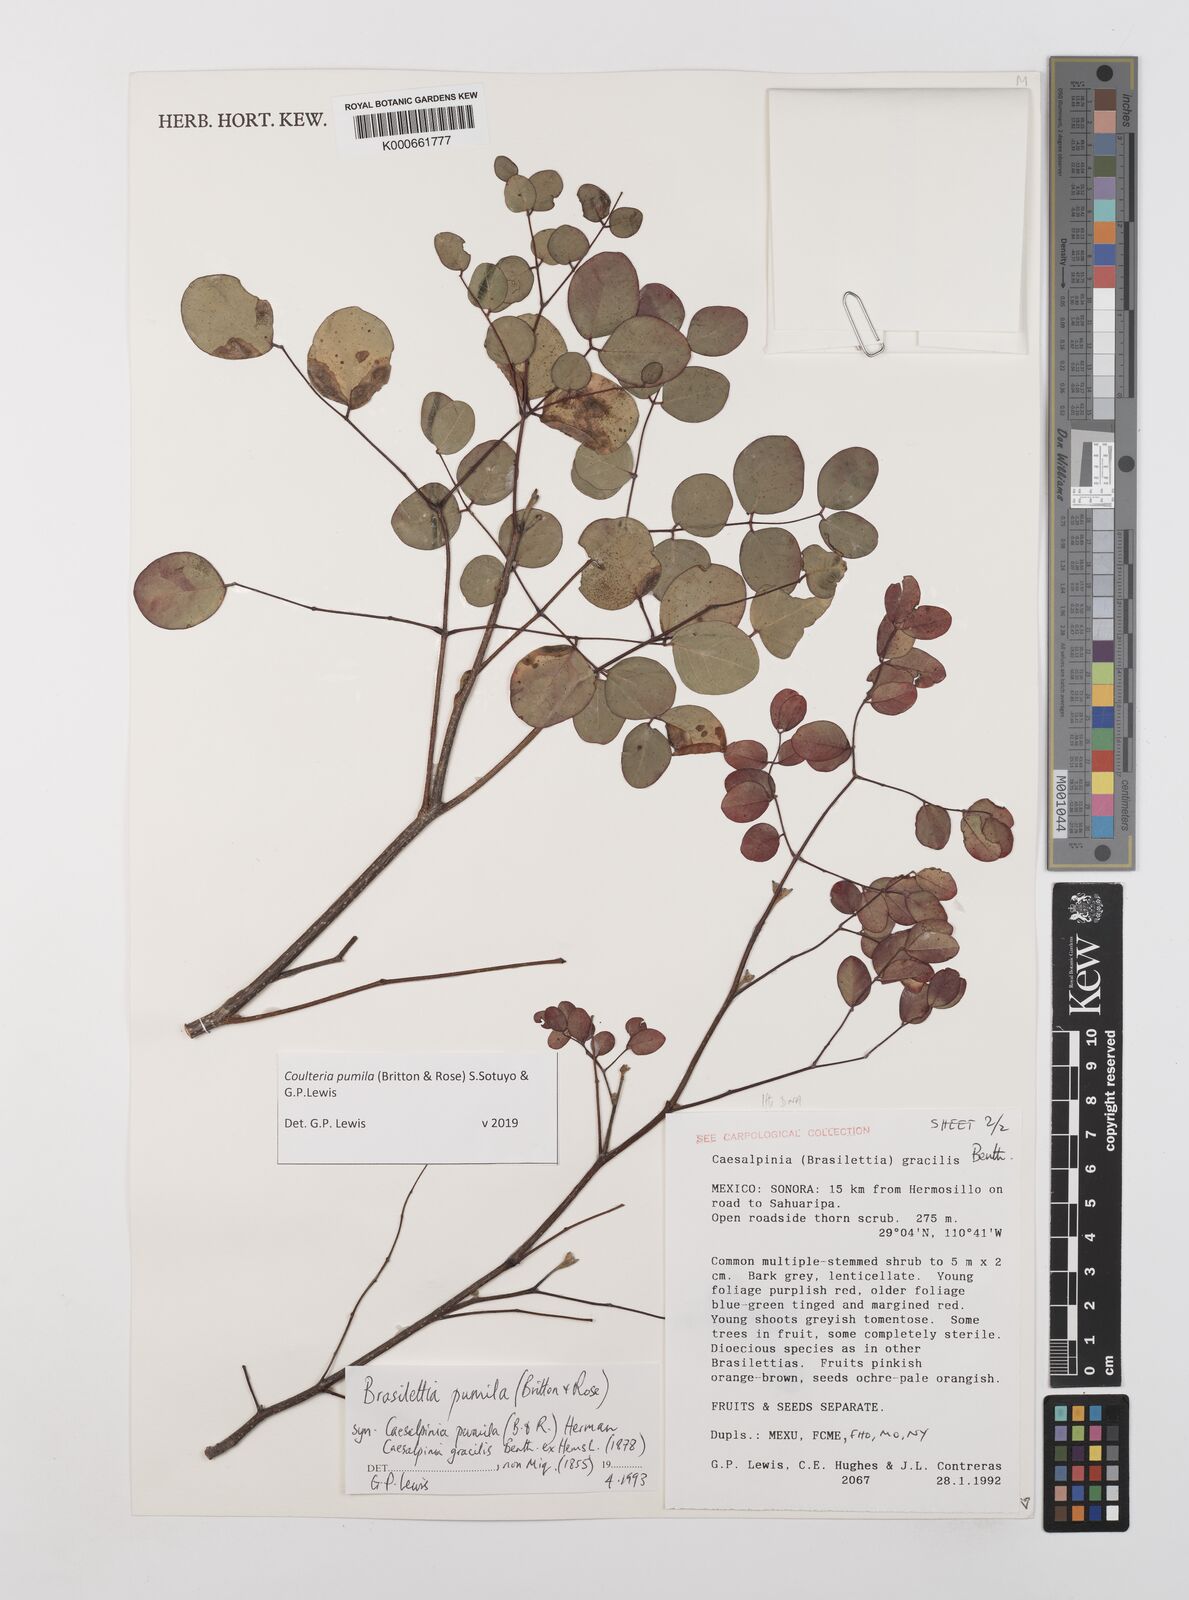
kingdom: Plantae
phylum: Tracheophyta
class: Magnoliopsida
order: Fabales
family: Fabaceae
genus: Coulteria
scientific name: Coulteria
